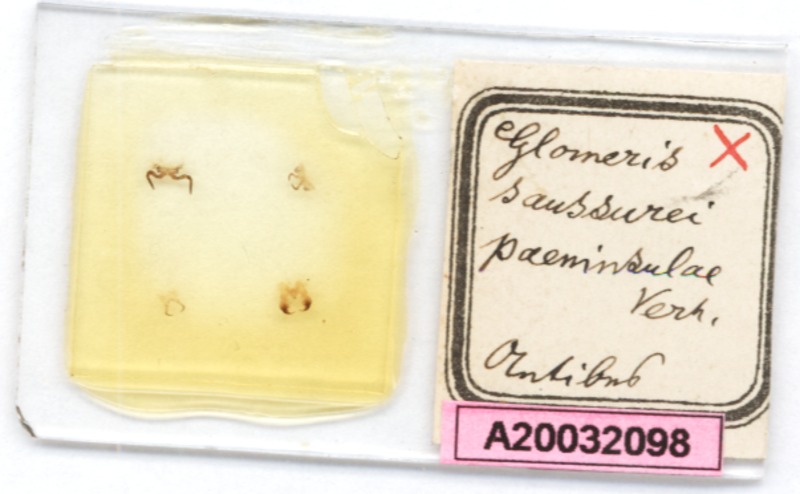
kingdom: Animalia
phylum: Arthropoda
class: Diplopoda
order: Glomerida
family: Glomeridae
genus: Glomeris
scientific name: Glomeris valesiaca
